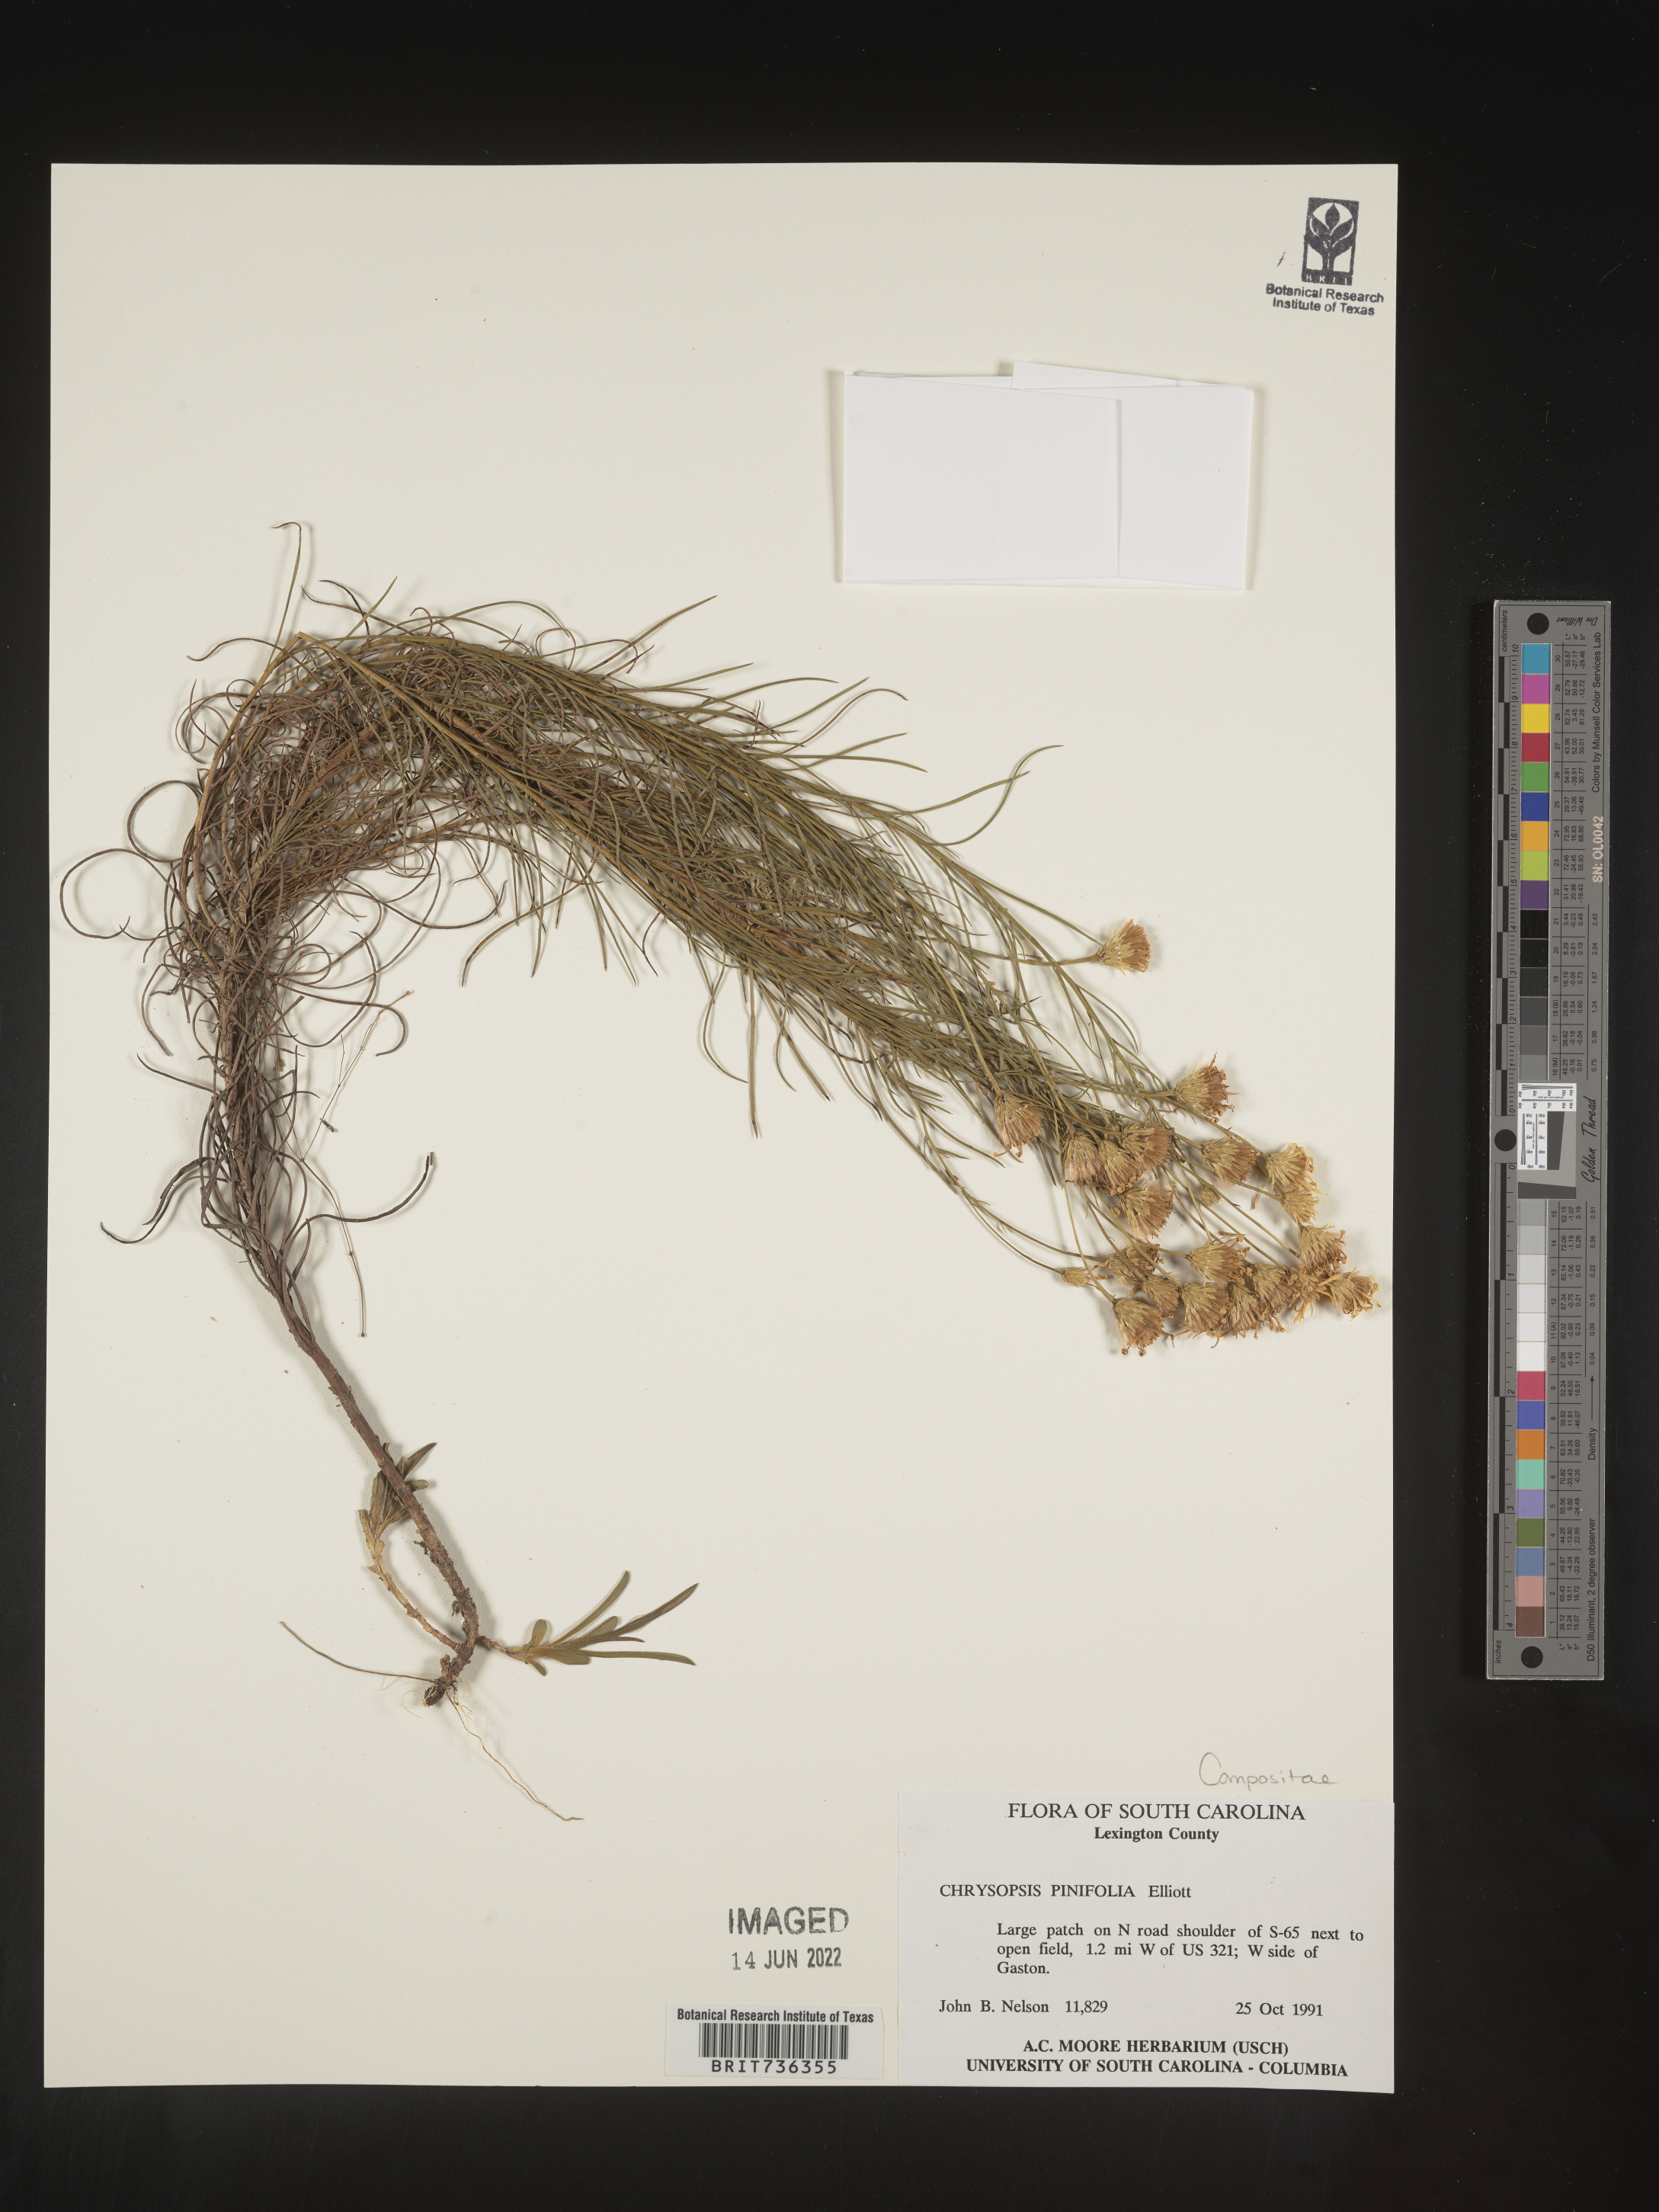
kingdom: Plantae
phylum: Tracheophyta
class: Magnoliopsida
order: Asterales
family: Asteraceae
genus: Pityopsis
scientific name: Pityopsis pinifolia
